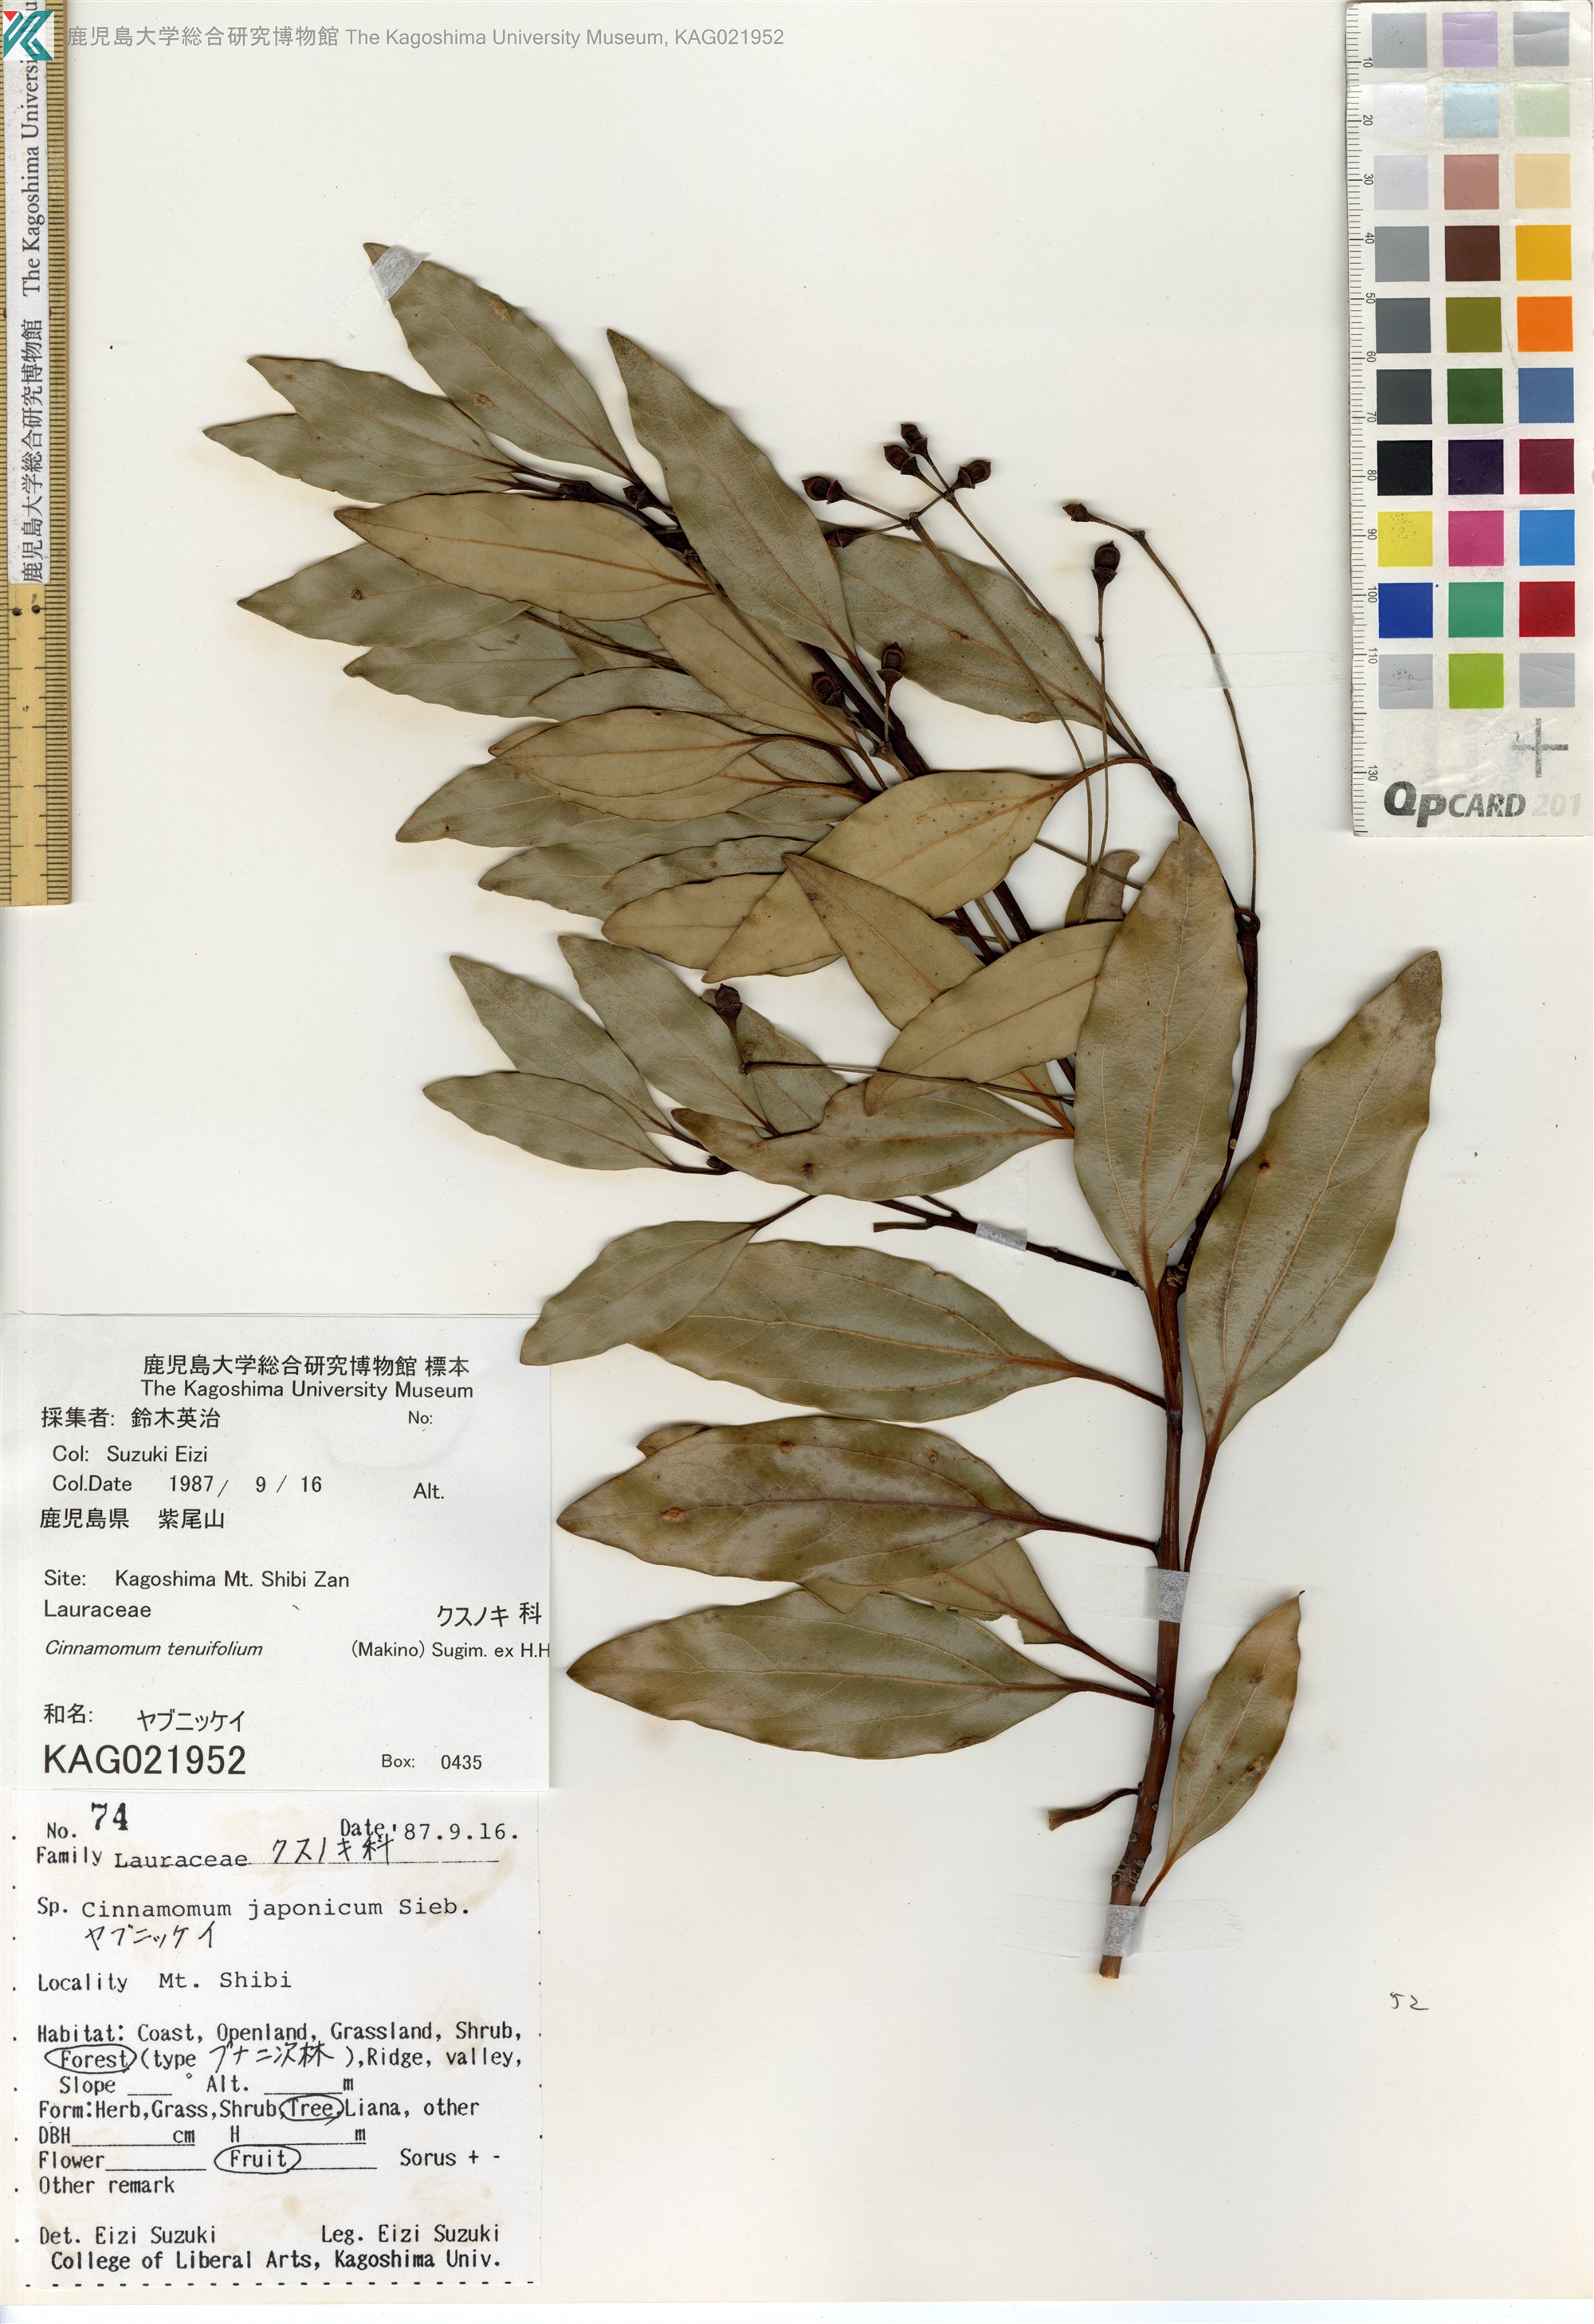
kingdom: Plantae
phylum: Tracheophyta
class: Magnoliopsida
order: Laurales
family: Lauraceae
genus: Cinnamomum
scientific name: Cinnamomum chekiangense
